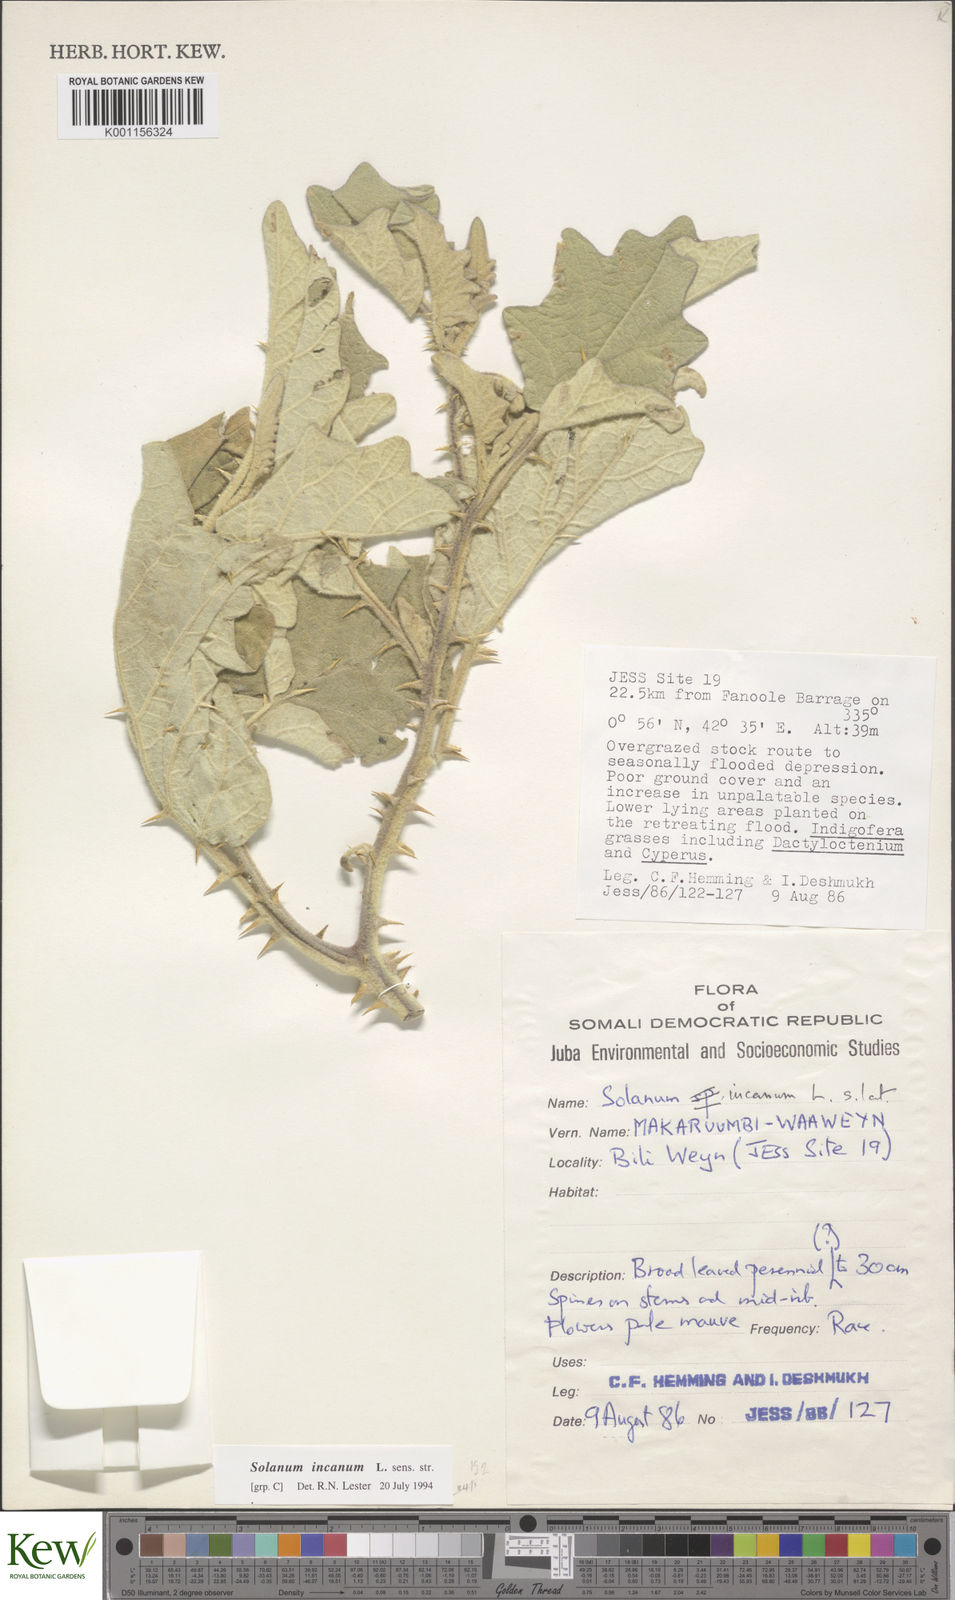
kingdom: Plantae
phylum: Tracheophyta
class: Magnoliopsida
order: Solanales
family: Solanaceae
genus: Solanum
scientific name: Solanum incanum
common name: Bitter apple
